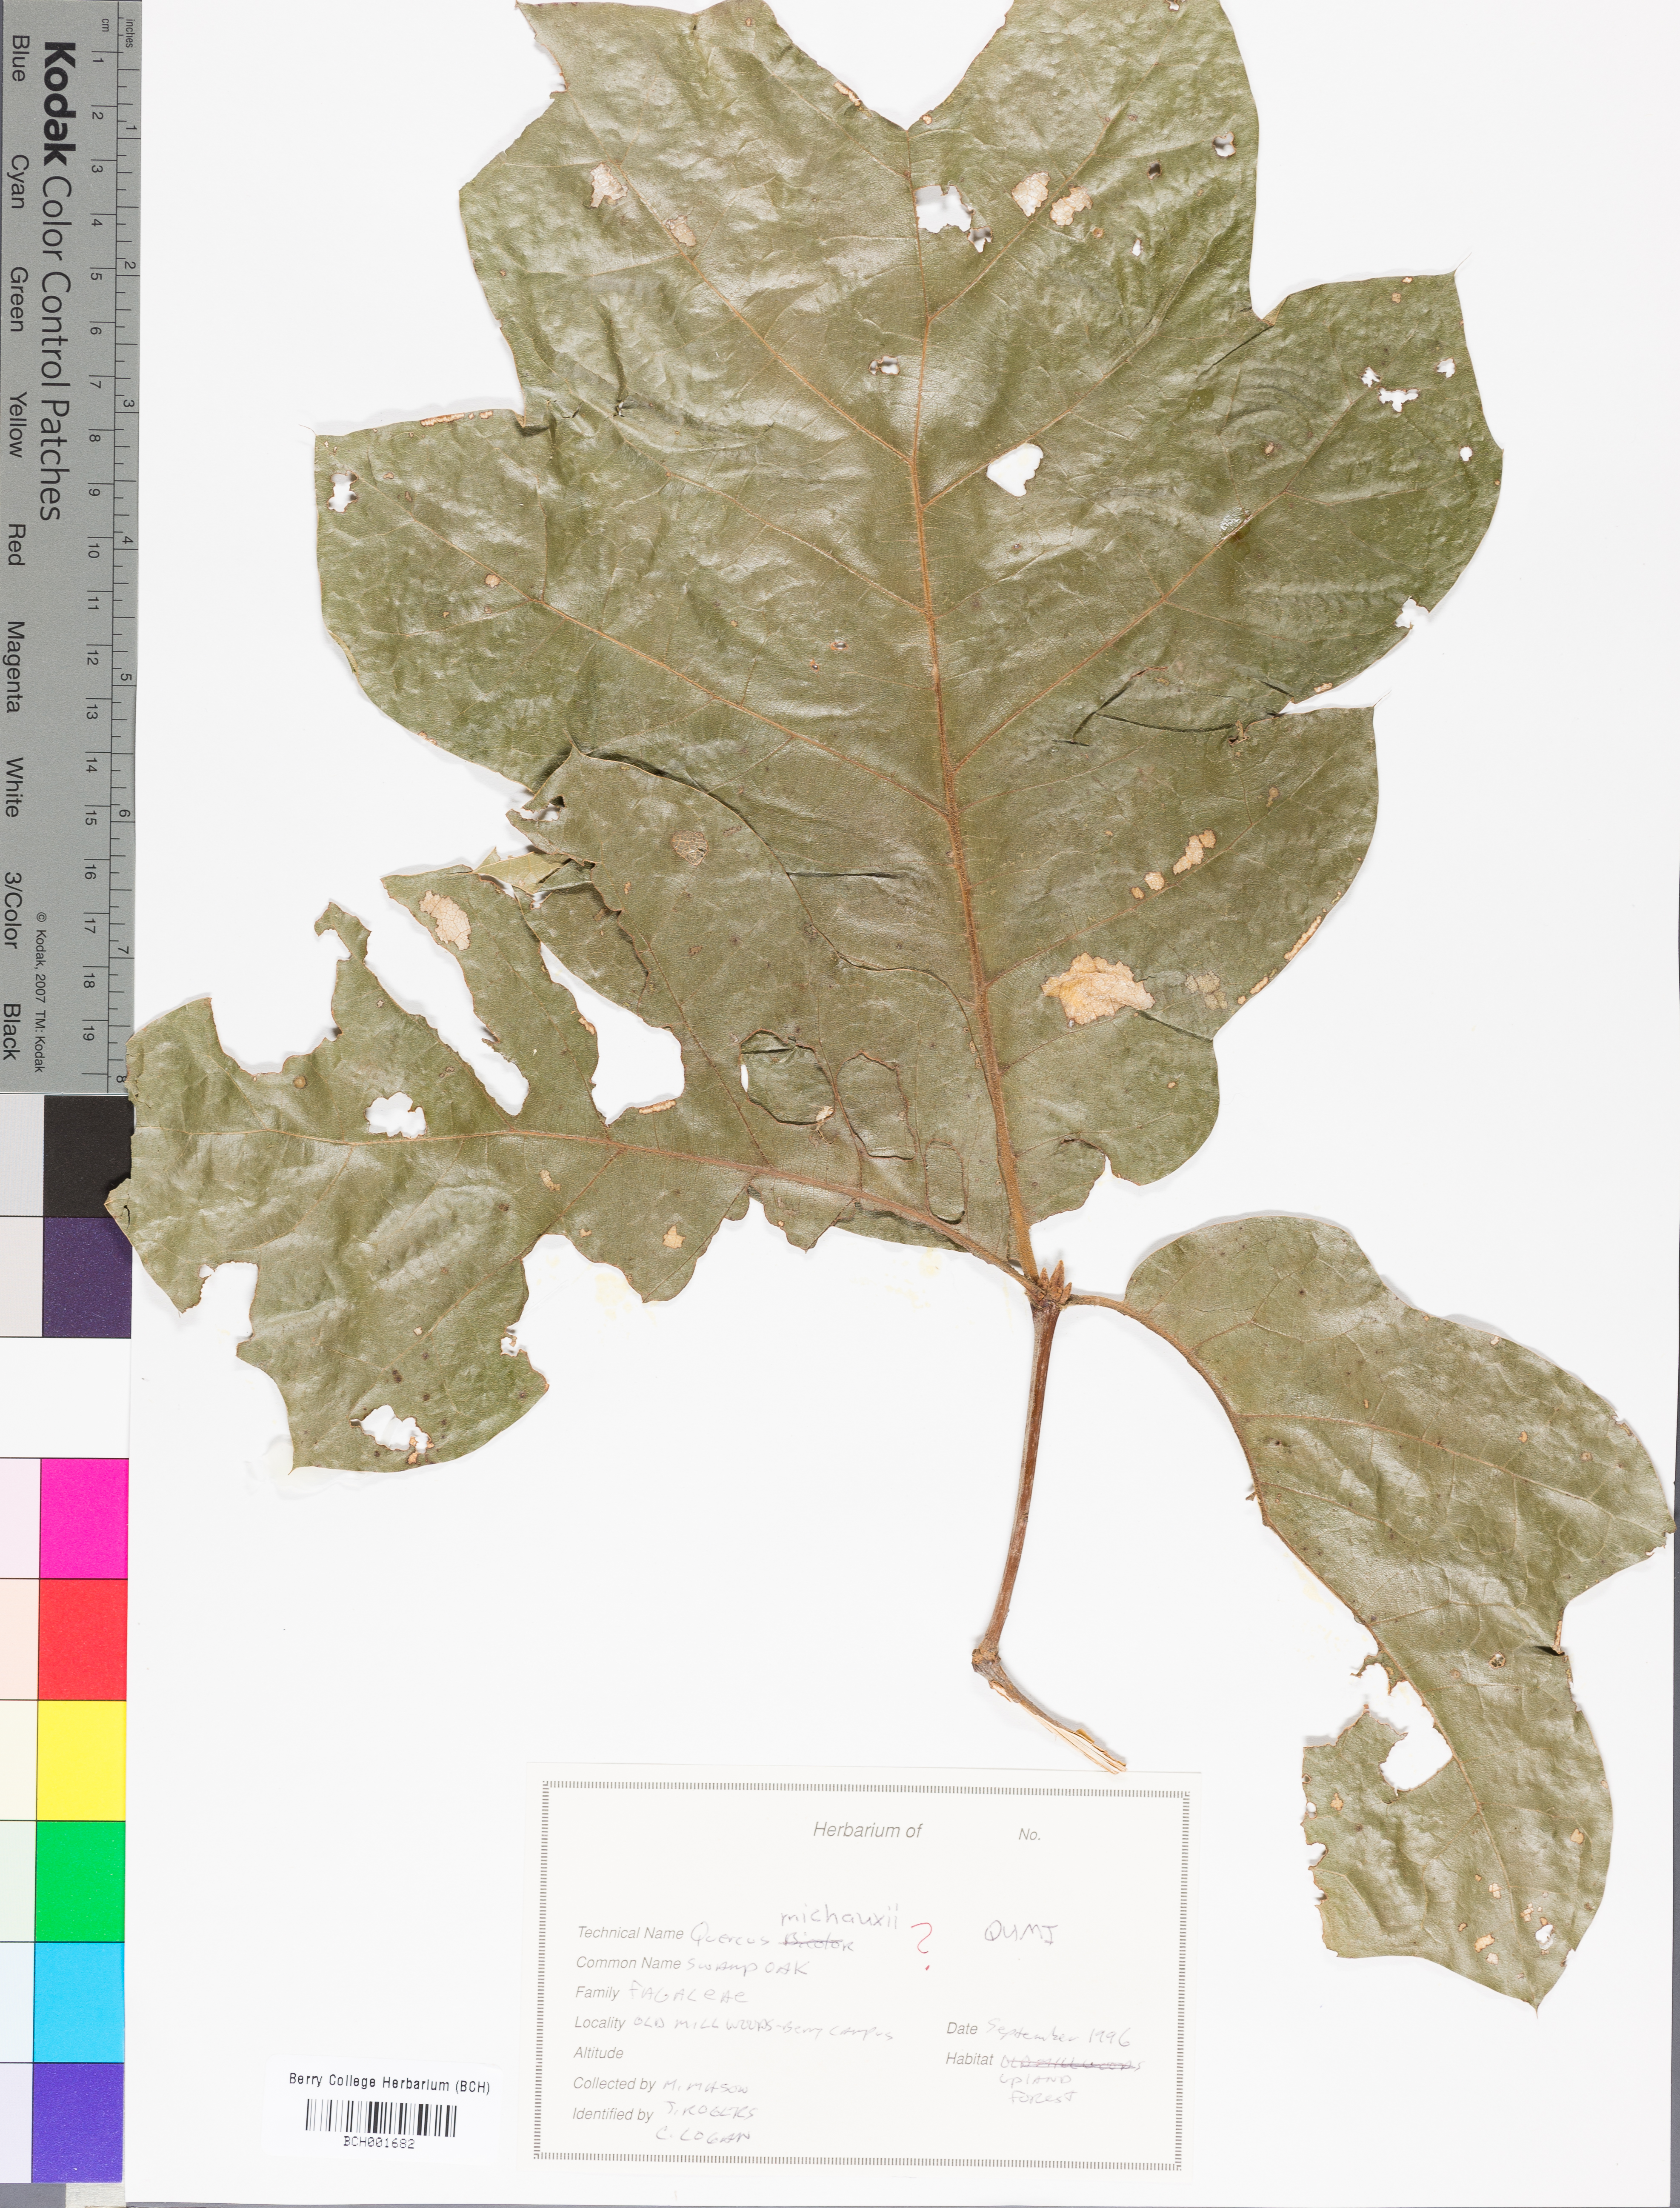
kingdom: Plantae
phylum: Tracheophyta
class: Magnoliopsida
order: Fagales
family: Fagaceae
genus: Quercus
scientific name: Quercus michauxii
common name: Swamp chestnut oak
